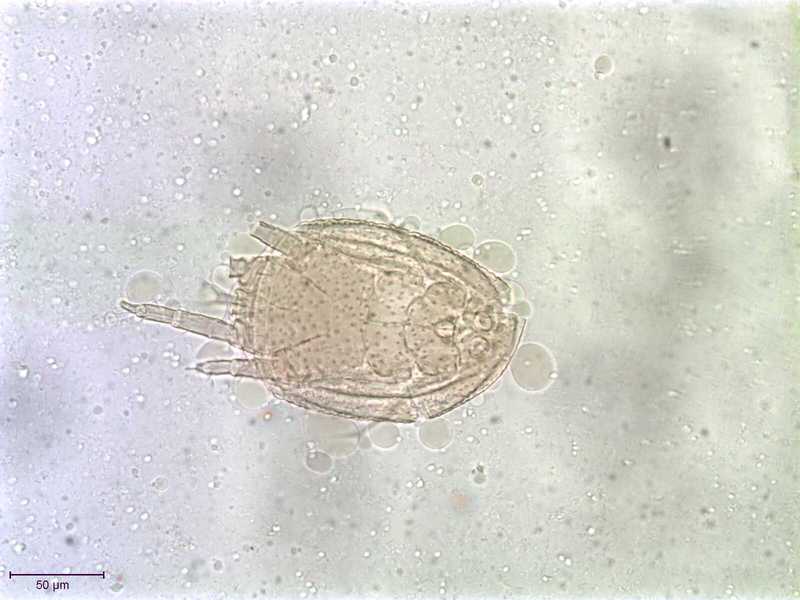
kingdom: Animalia
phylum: Arthropoda
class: Arachnida
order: Sarcoptiformes
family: Histiostomatidae
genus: Capronomoia
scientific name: Capronomoia sphaerocerae
